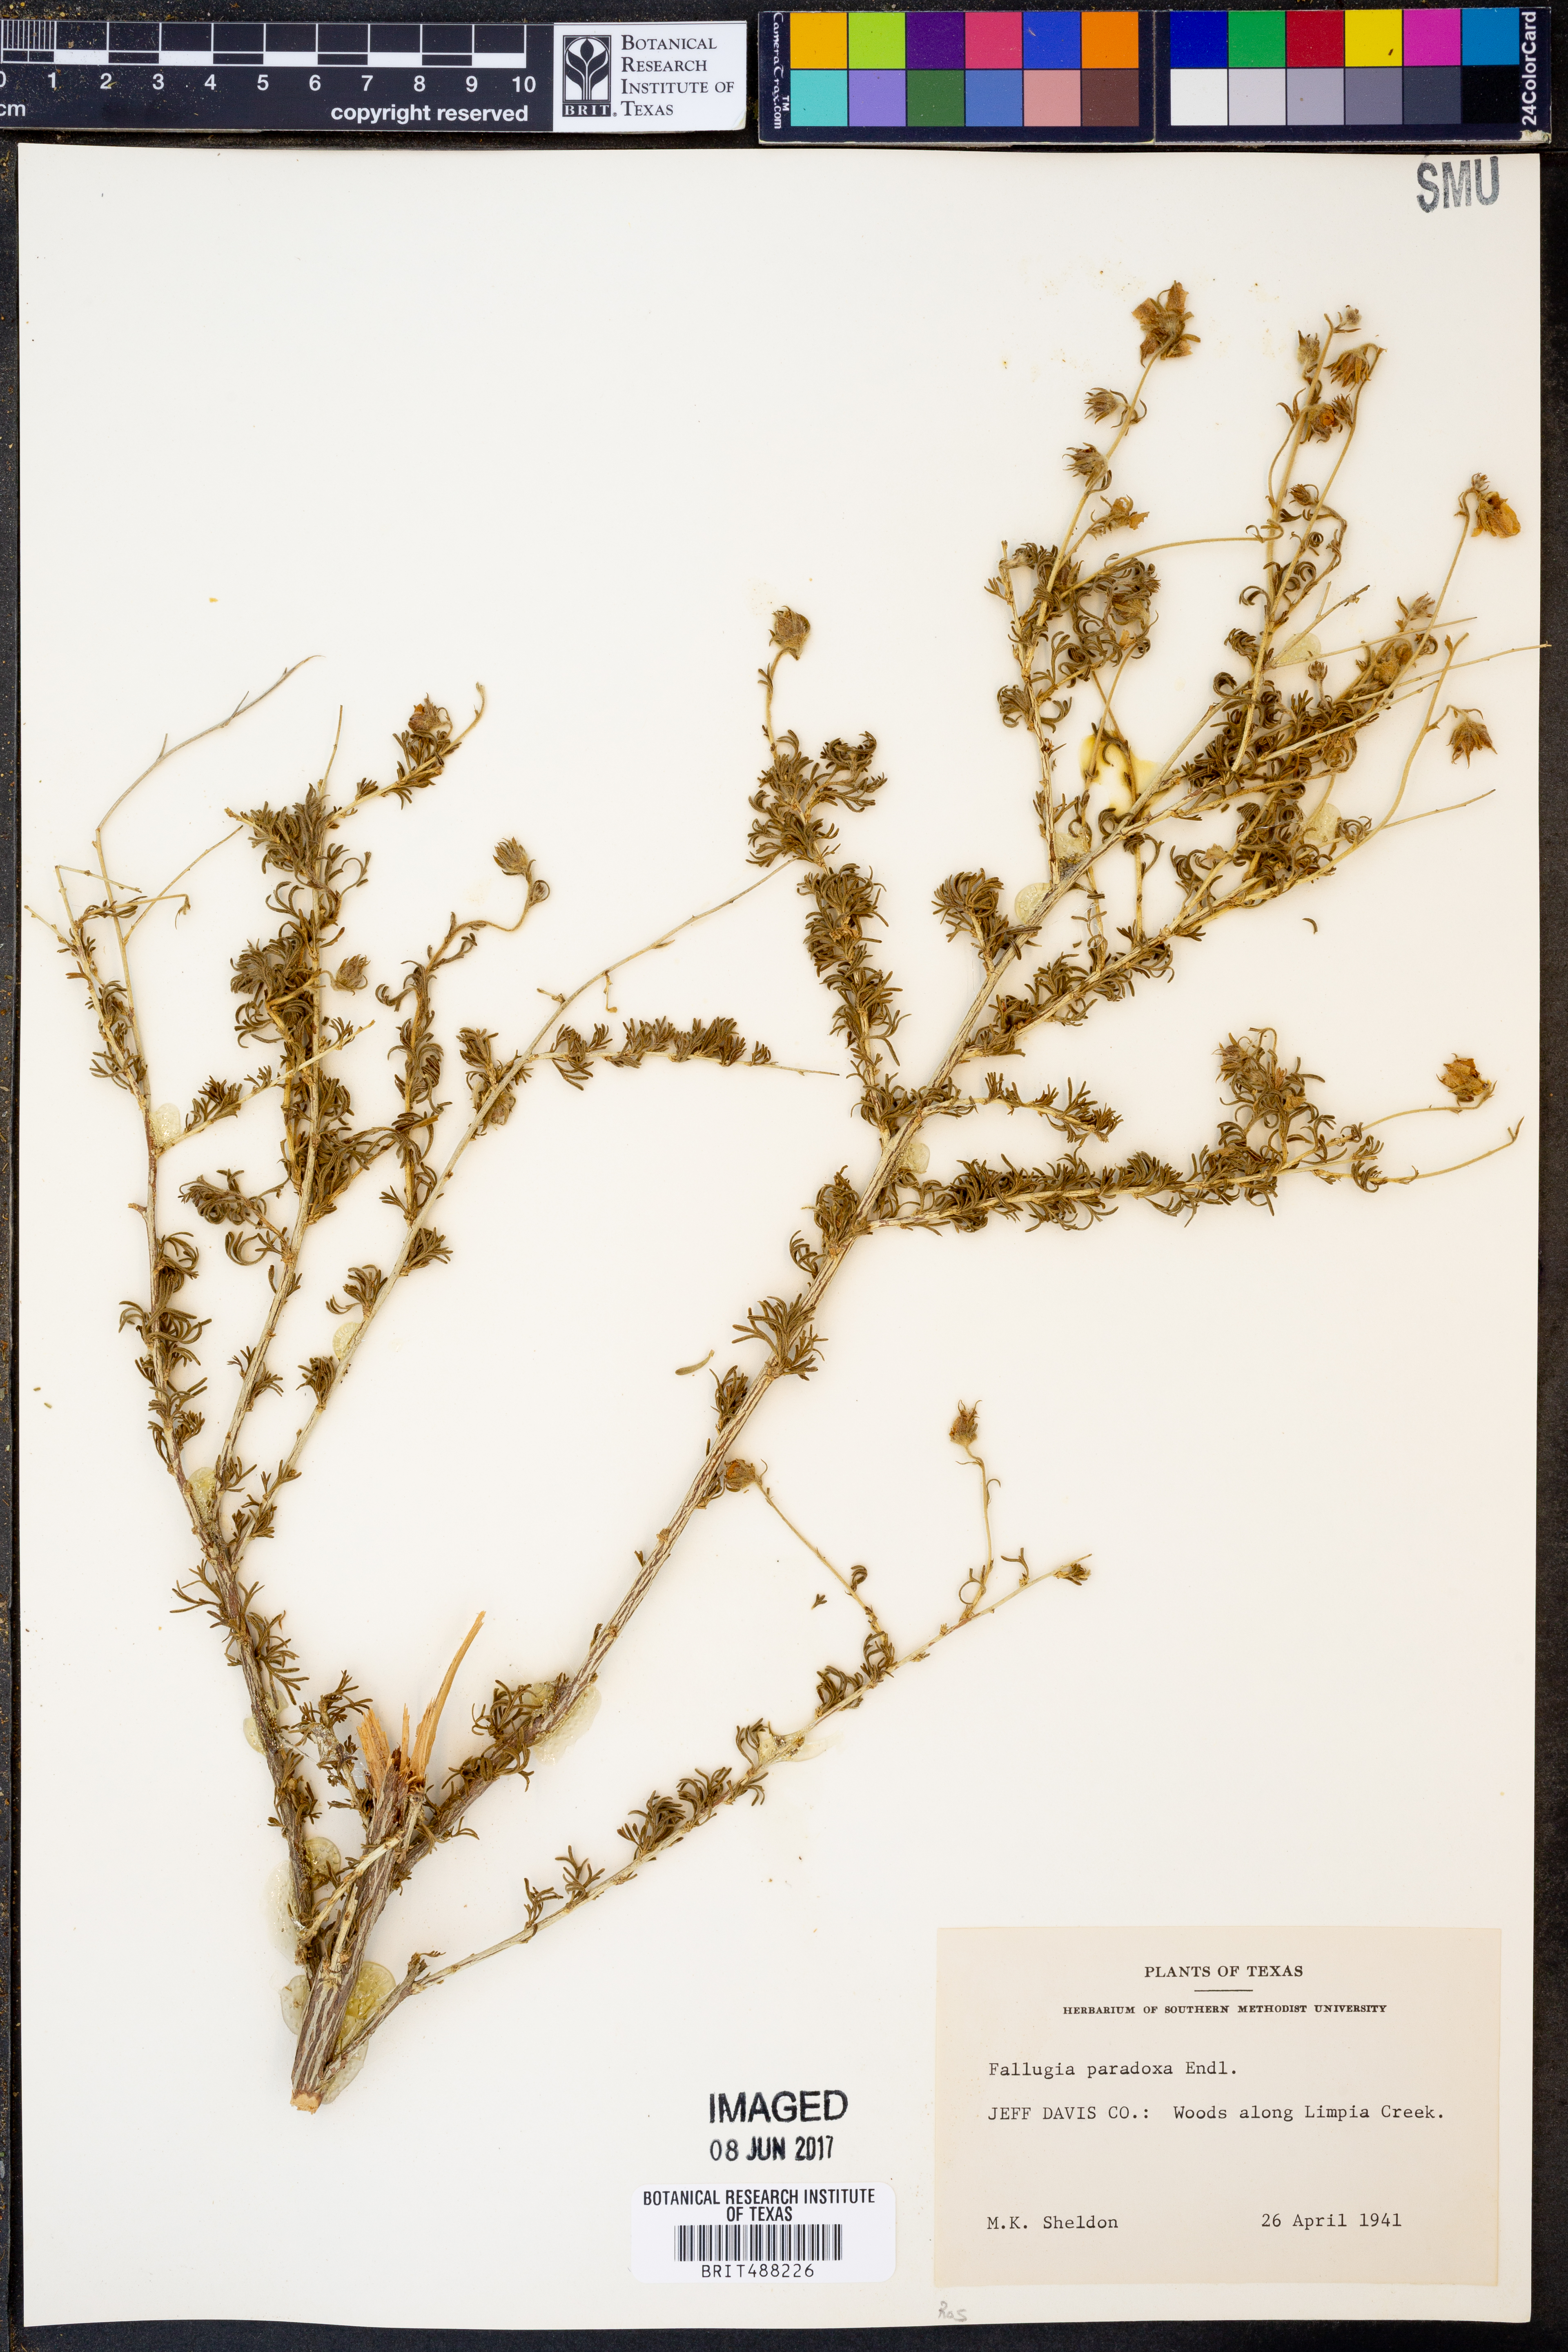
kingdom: Plantae
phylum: Tracheophyta
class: Magnoliopsida
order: Rosales
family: Rosaceae
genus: Fallugia
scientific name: Fallugia paradoxa
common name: Apache-plume
